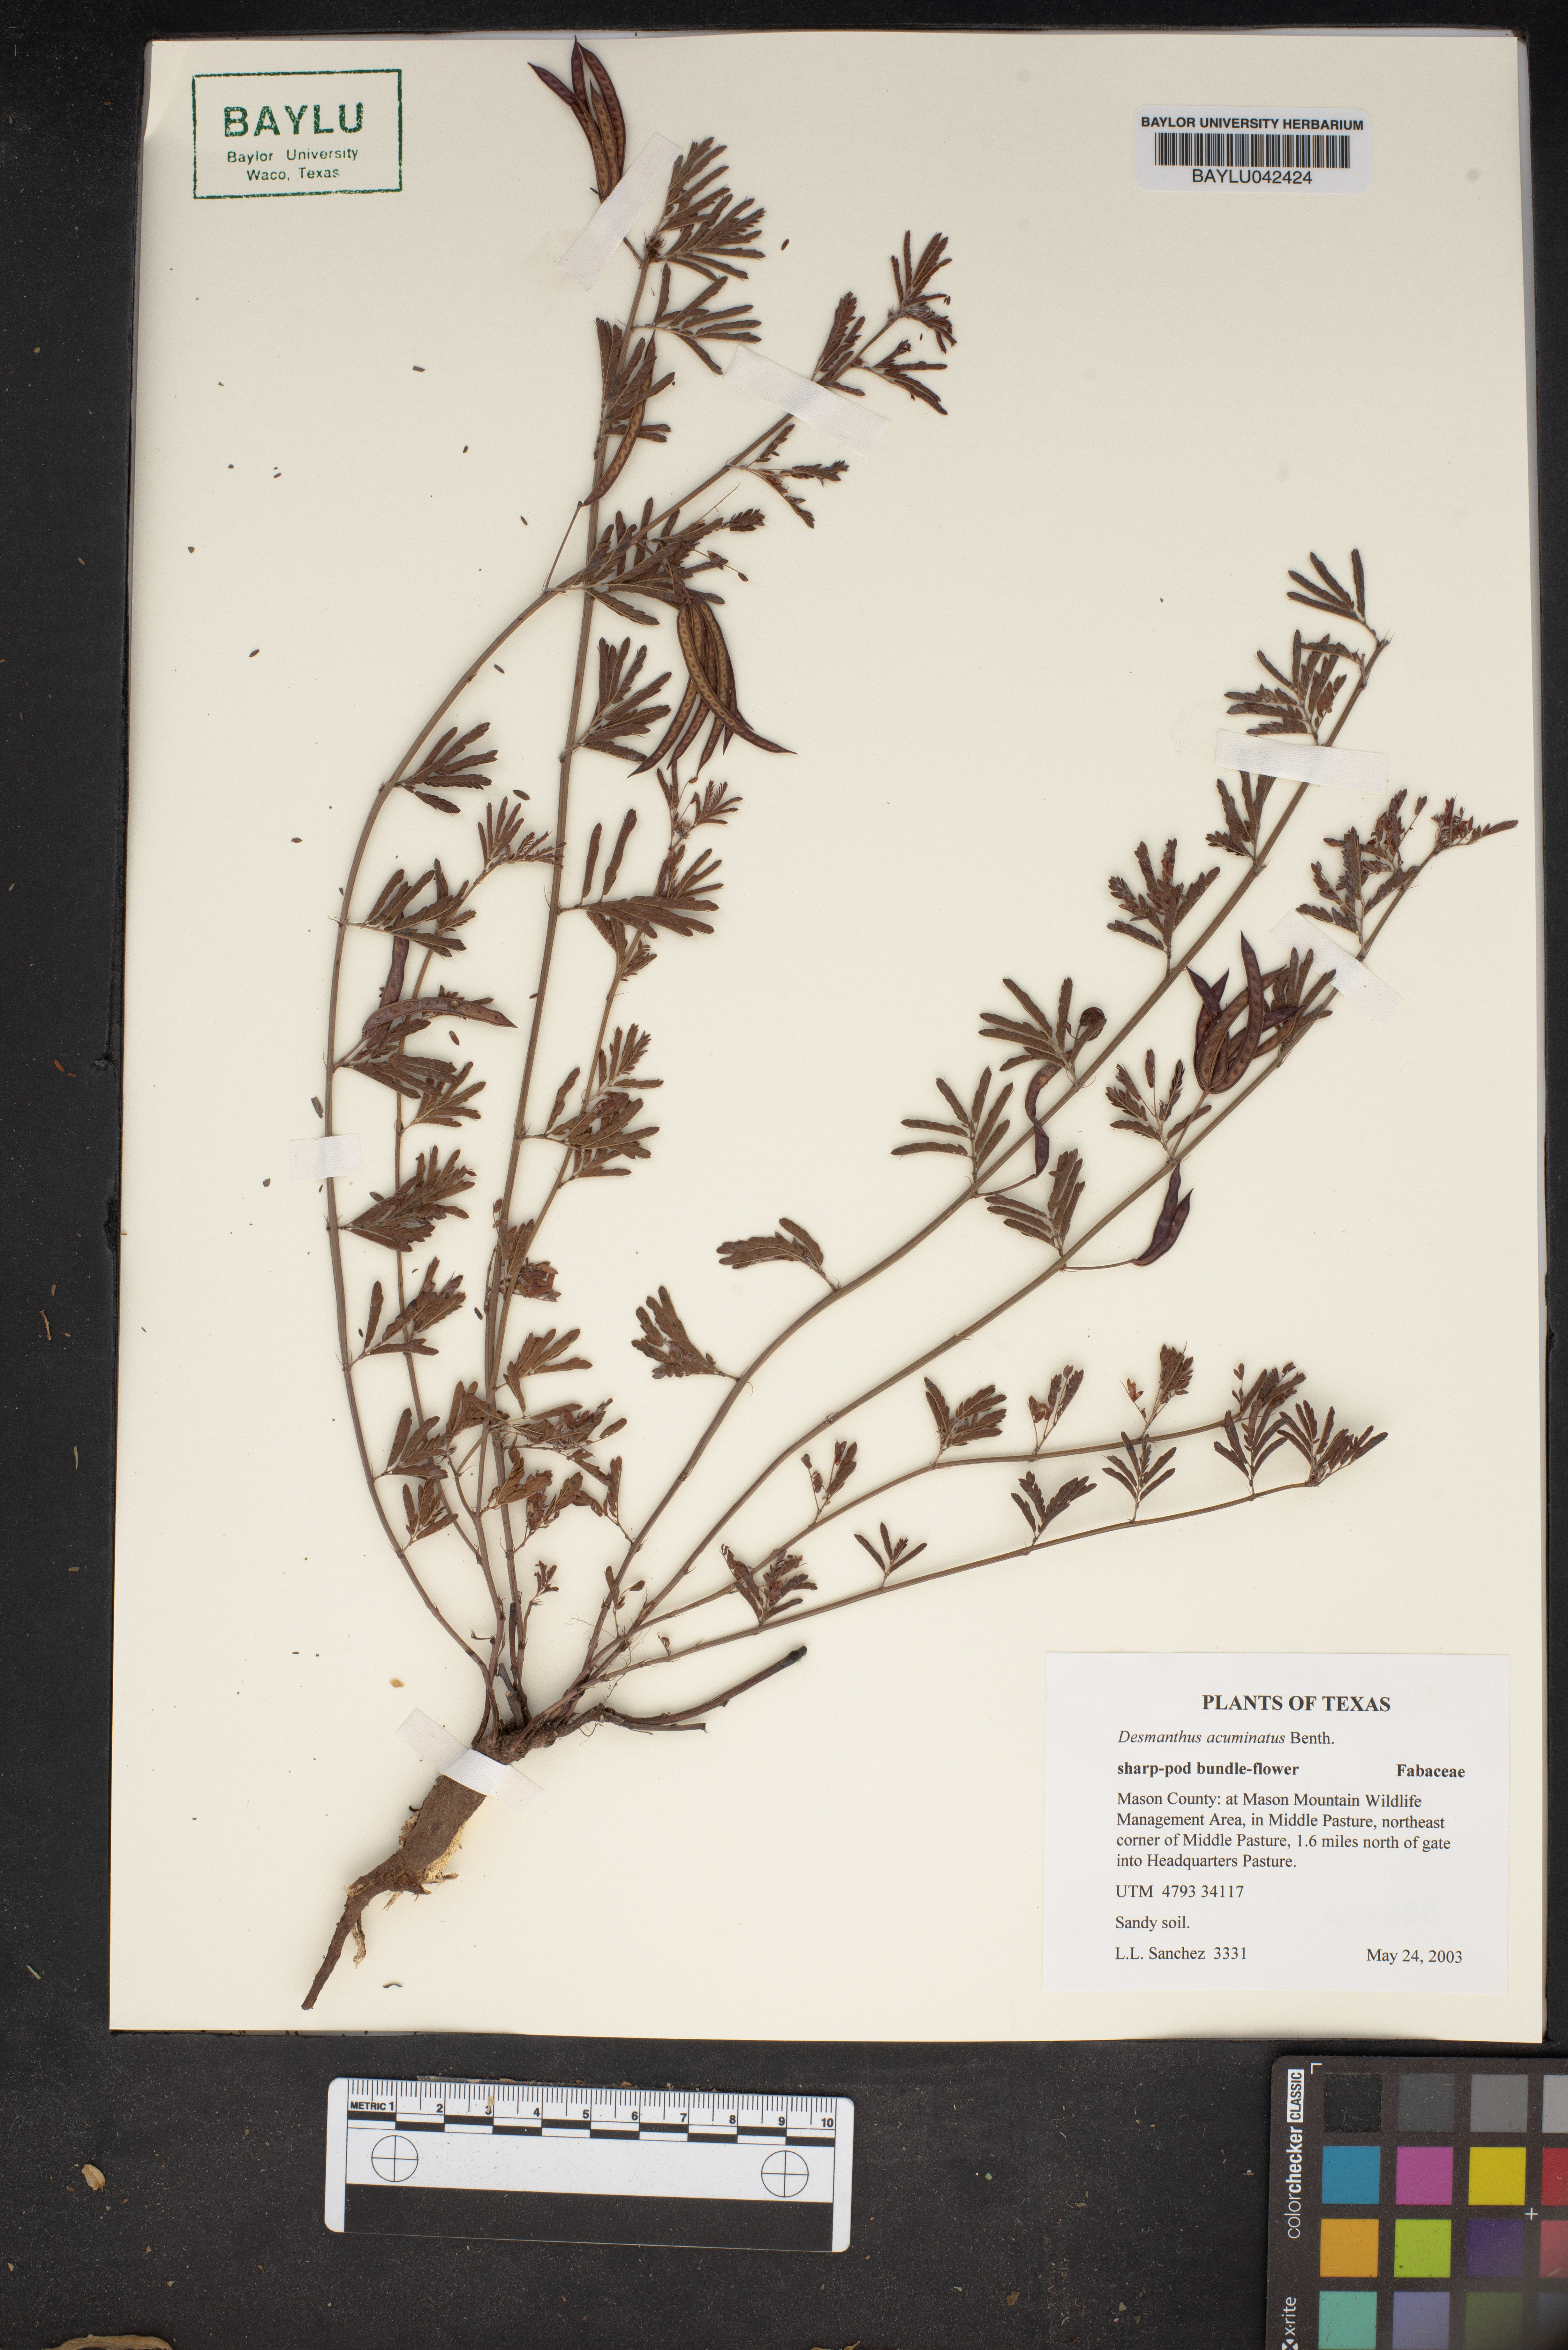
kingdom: Plantae
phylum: Tracheophyta
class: Magnoliopsida
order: Fabales
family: Fabaceae
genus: Desmanthus
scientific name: Desmanthus acuminatus
